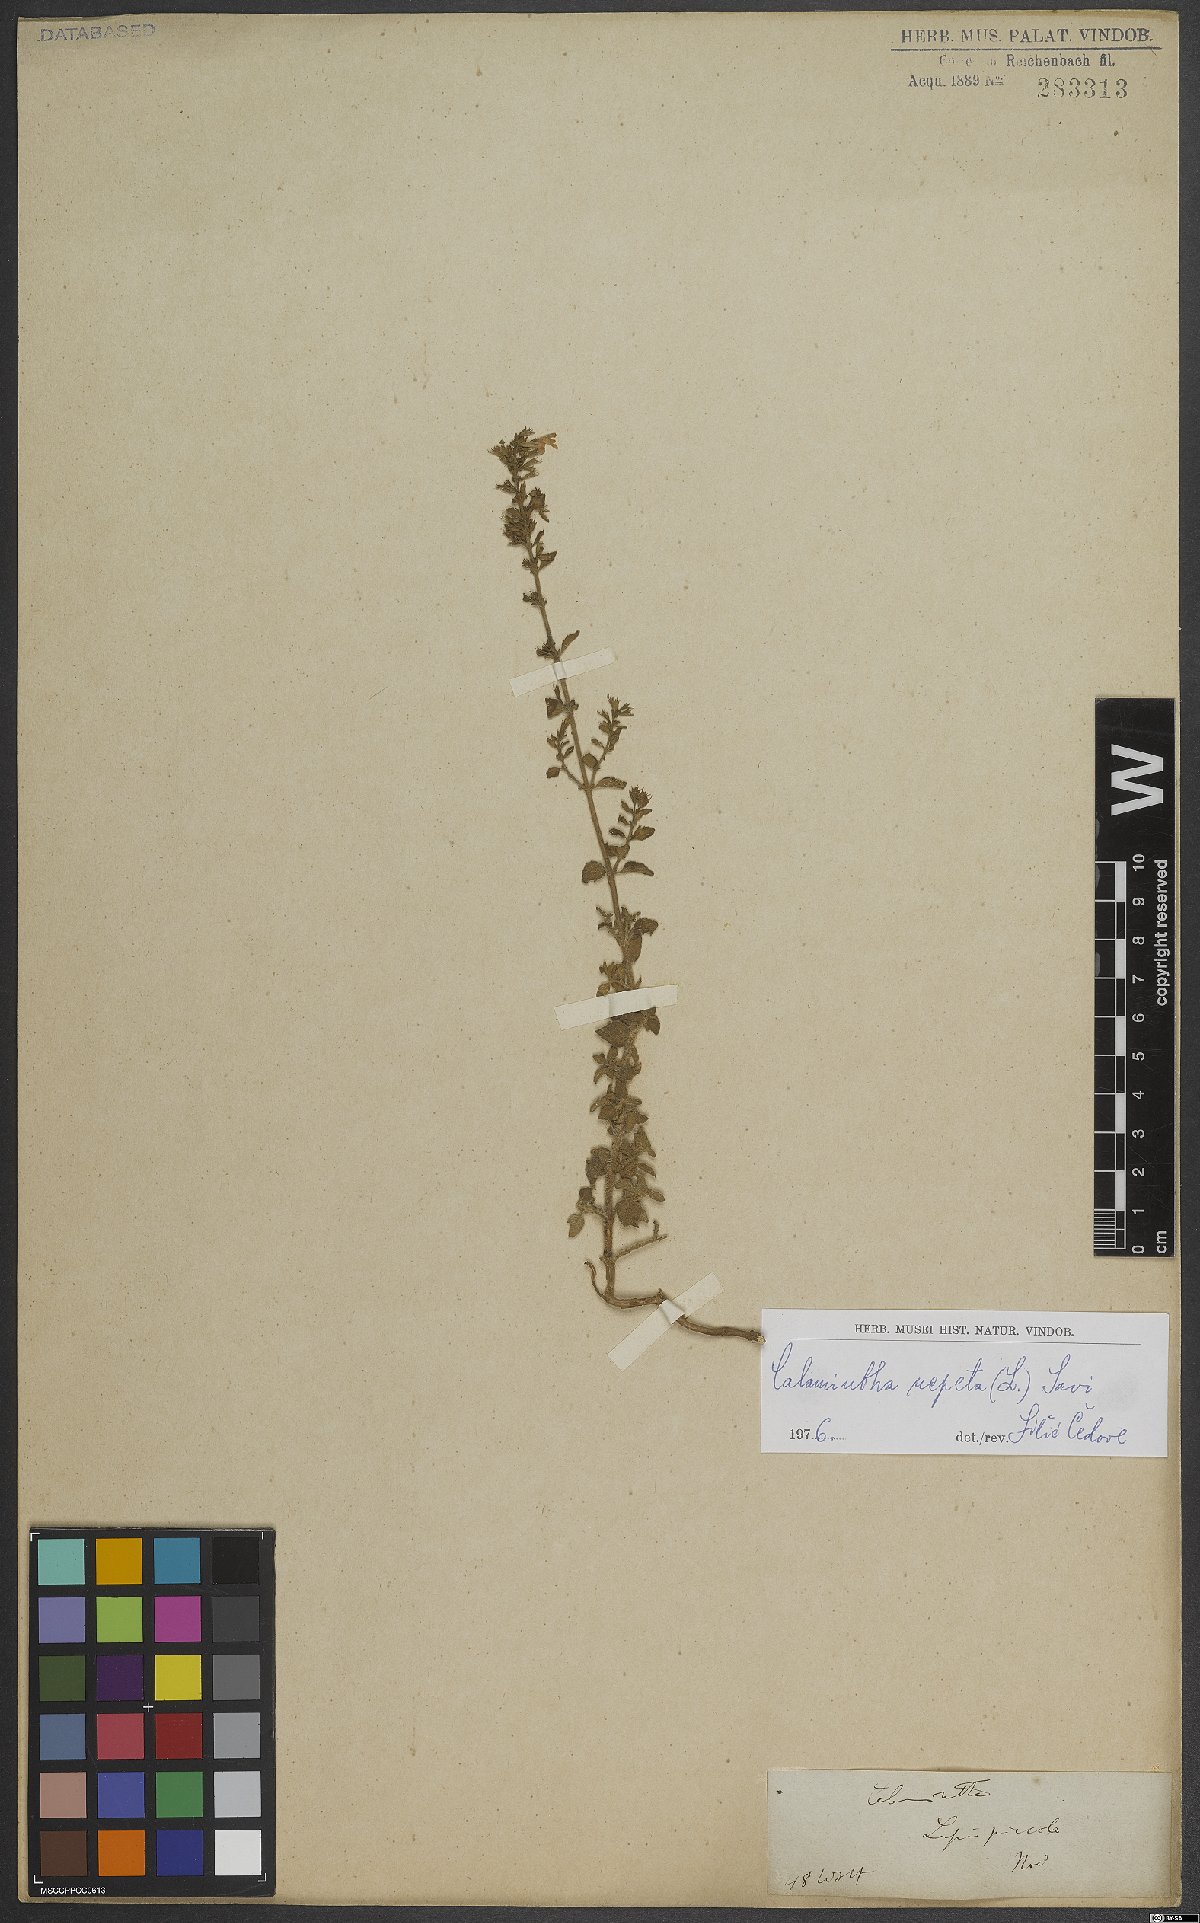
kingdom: Plantae
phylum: Tracheophyta
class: Magnoliopsida
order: Lamiales
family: Lamiaceae
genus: Clinopodium
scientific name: Clinopodium nepeta
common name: Lesser calamint
